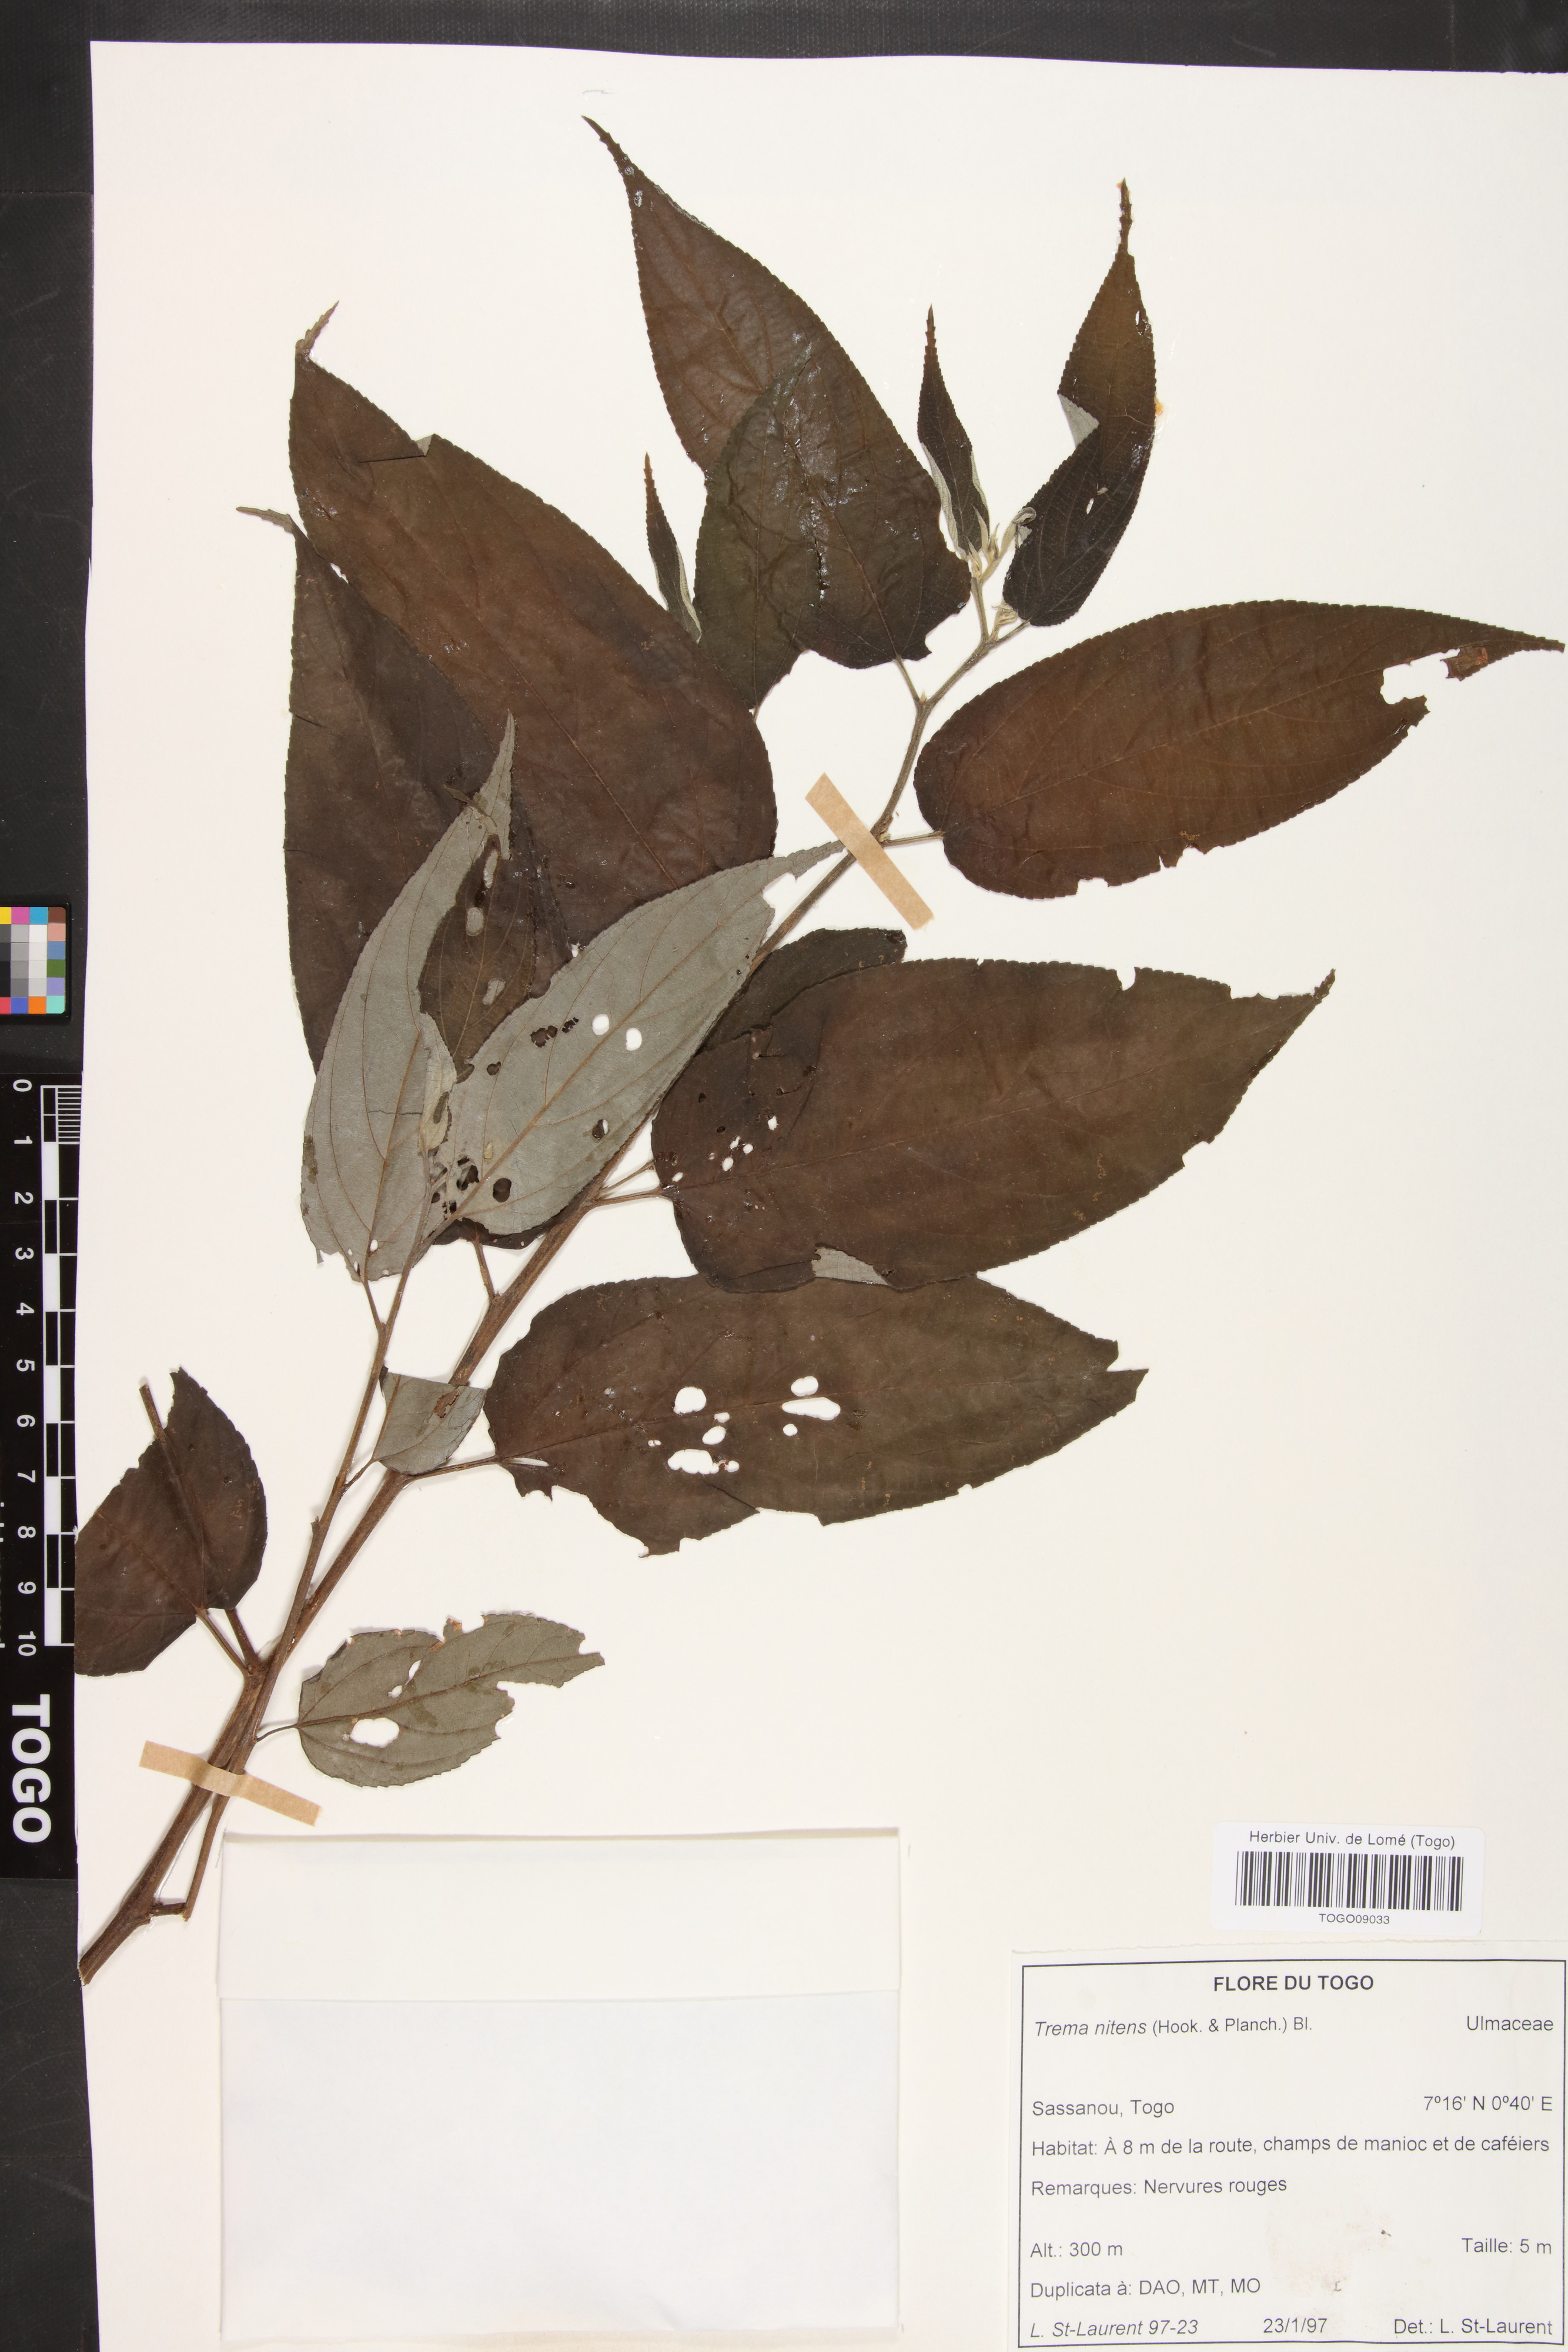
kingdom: Plantae
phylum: Tracheophyta
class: Magnoliopsida
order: Rosales
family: Cannabaceae
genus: Trema
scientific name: Trema orientale
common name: Indian charcoal tree
